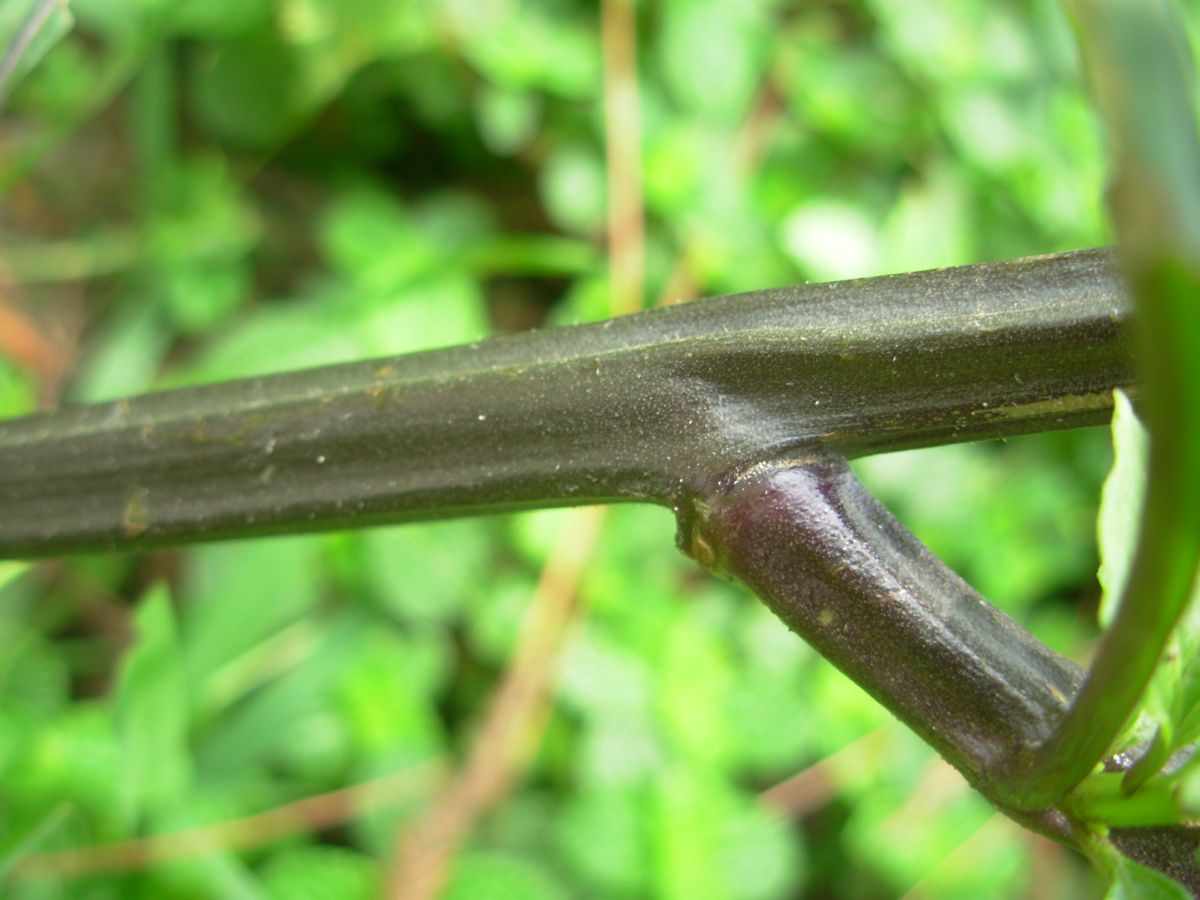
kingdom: Plantae
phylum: Tracheophyta
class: Magnoliopsida
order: Solanales
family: Solanaceae
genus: Jaltomata
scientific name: Jaltomata procumbens
